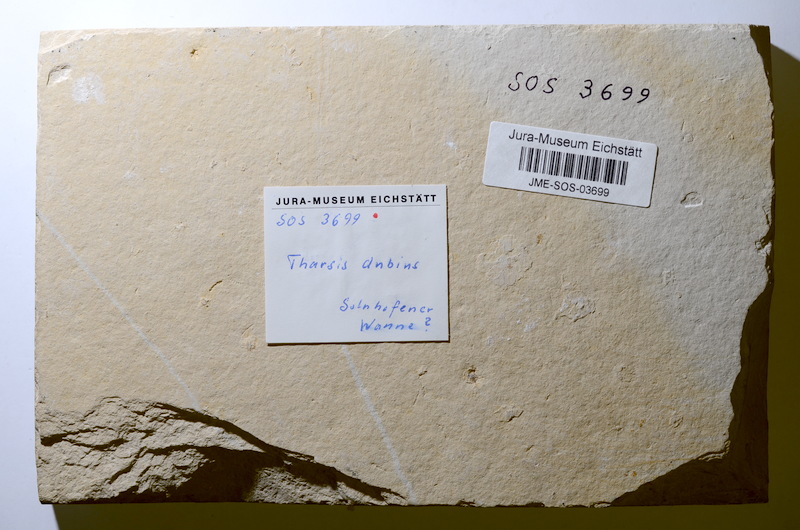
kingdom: Animalia
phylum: Chordata
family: Ascalaboidae
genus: Tharsis
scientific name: Tharsis dubius
